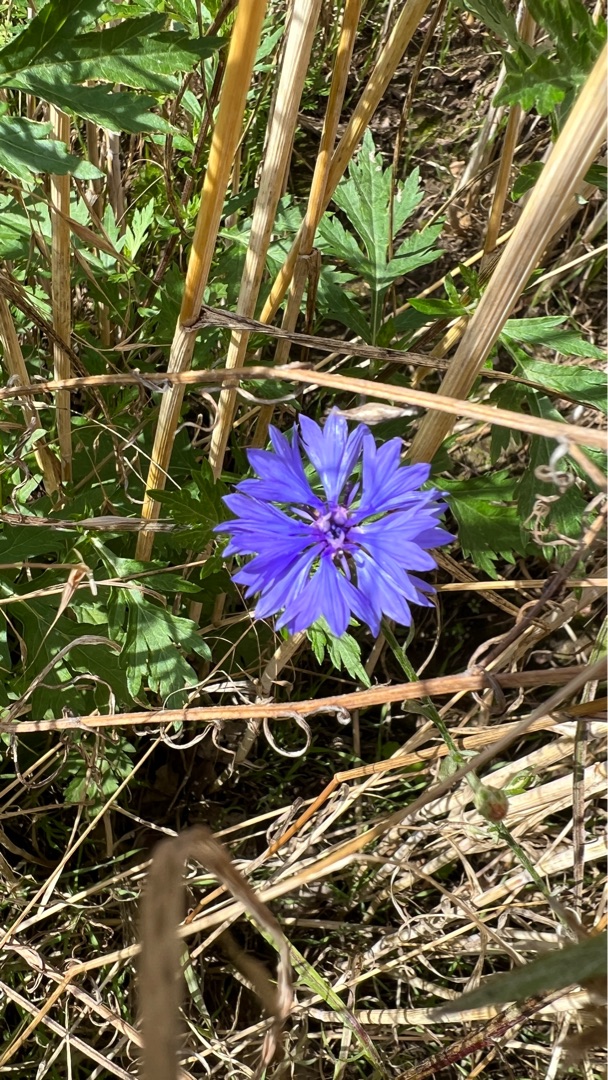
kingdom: Plantae
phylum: Tracheophyta
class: Magnoliopsida
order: Asterales
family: Asteraceae
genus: Centaurea
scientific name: Centaurea cyanus
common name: Kornblomst
